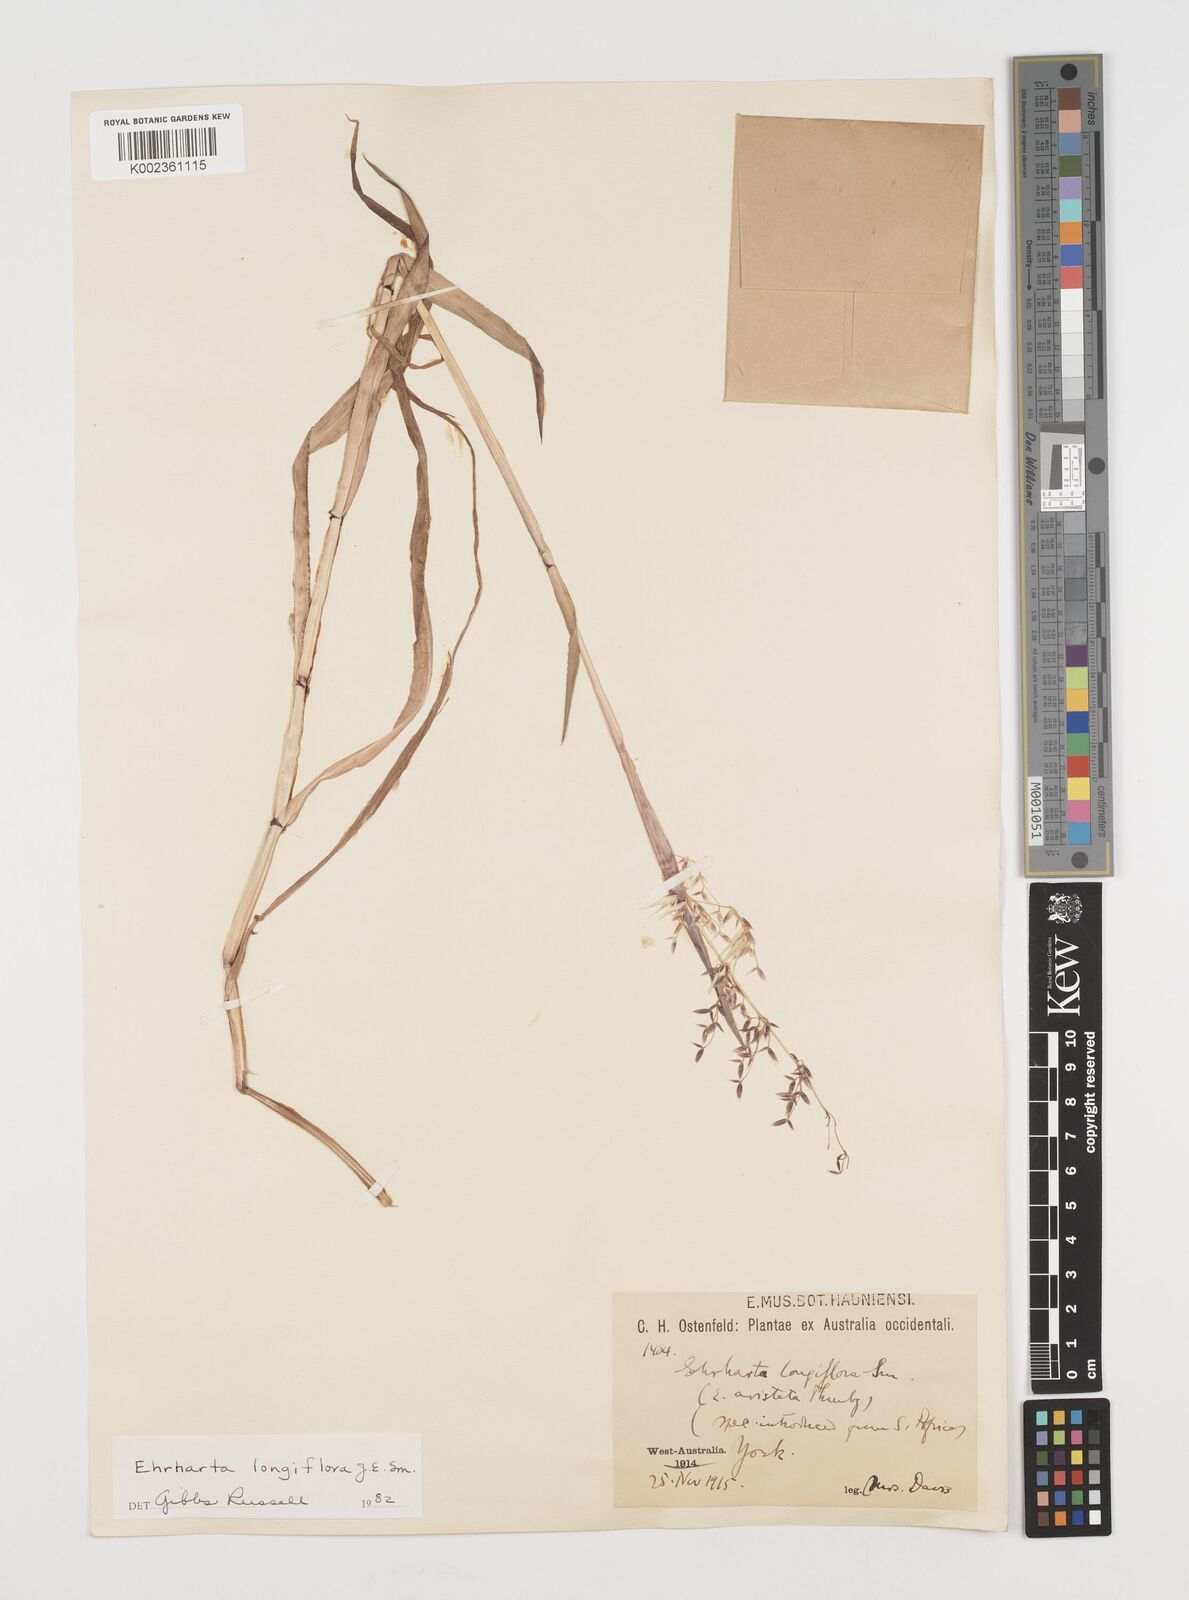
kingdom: Plantae
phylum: Tracheophyta
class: Liliopsida
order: Poales
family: Poaceae
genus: Ehrharta
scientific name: Ehrharta longiflora
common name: Longflowered veldtgrass
